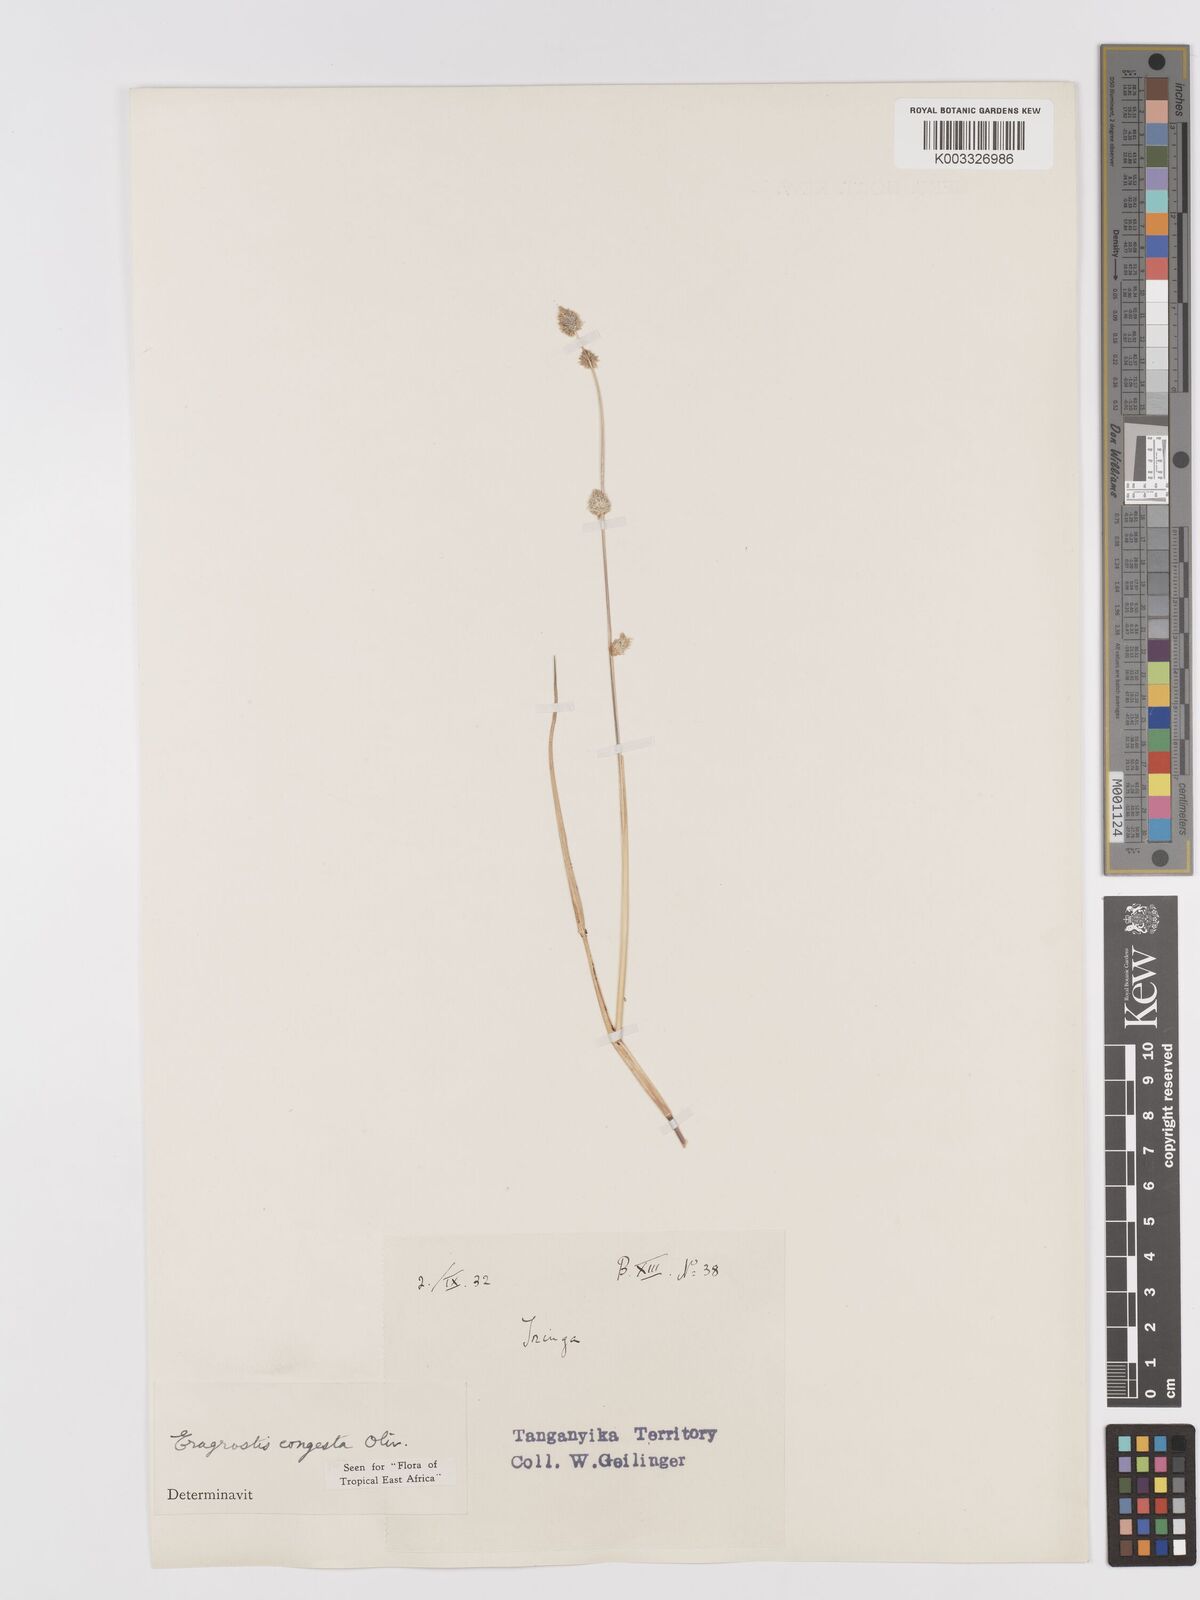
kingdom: Plantae
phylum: Tracheophyta
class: Liliopsida
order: Poales
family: Poaceae
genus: Eragrostis
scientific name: Eragrostis congesta
